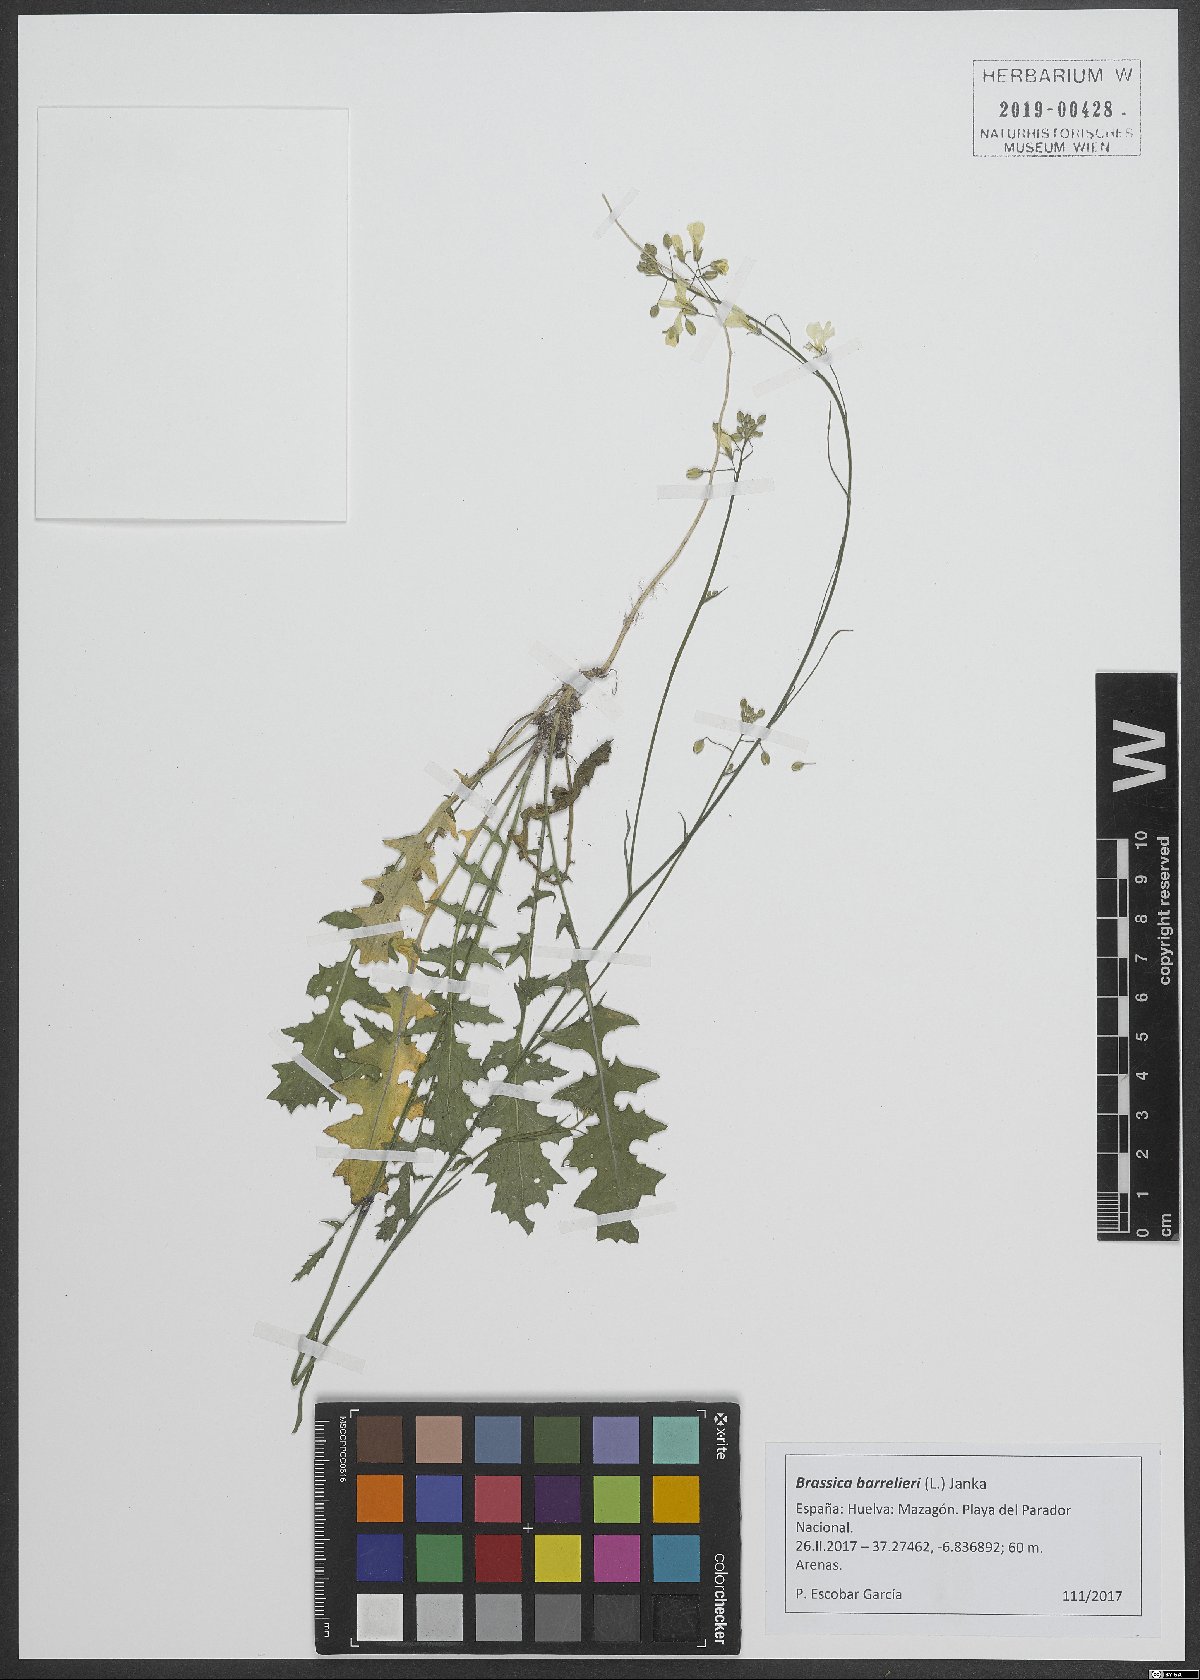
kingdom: Plantae
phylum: Tracheophyta
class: Magnoliopsida
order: Brassicales
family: Brassicaceae
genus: Brassica
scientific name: Brassica barrelieri
